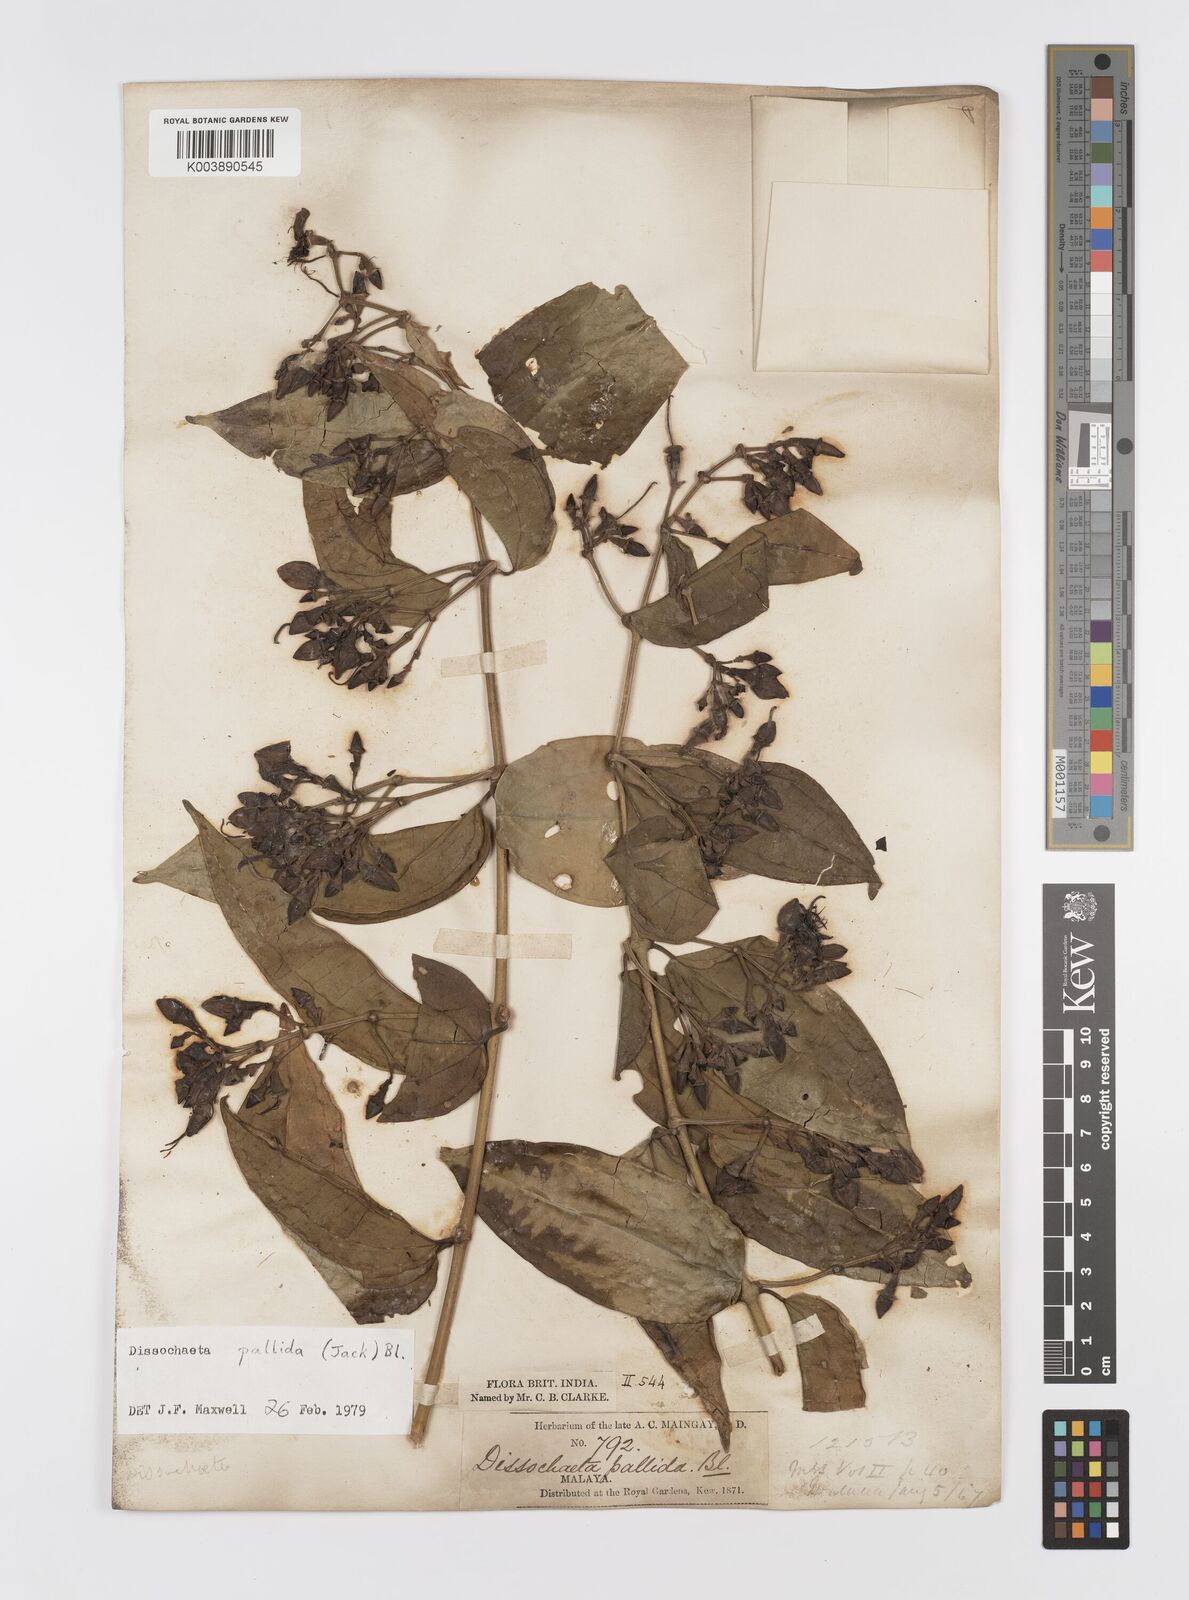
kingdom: Plantae
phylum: Tracheophyta
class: Magnoliopsida
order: Myrtales
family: Melastomataceae
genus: Dissochaeta
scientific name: Dissochaeta pallida
